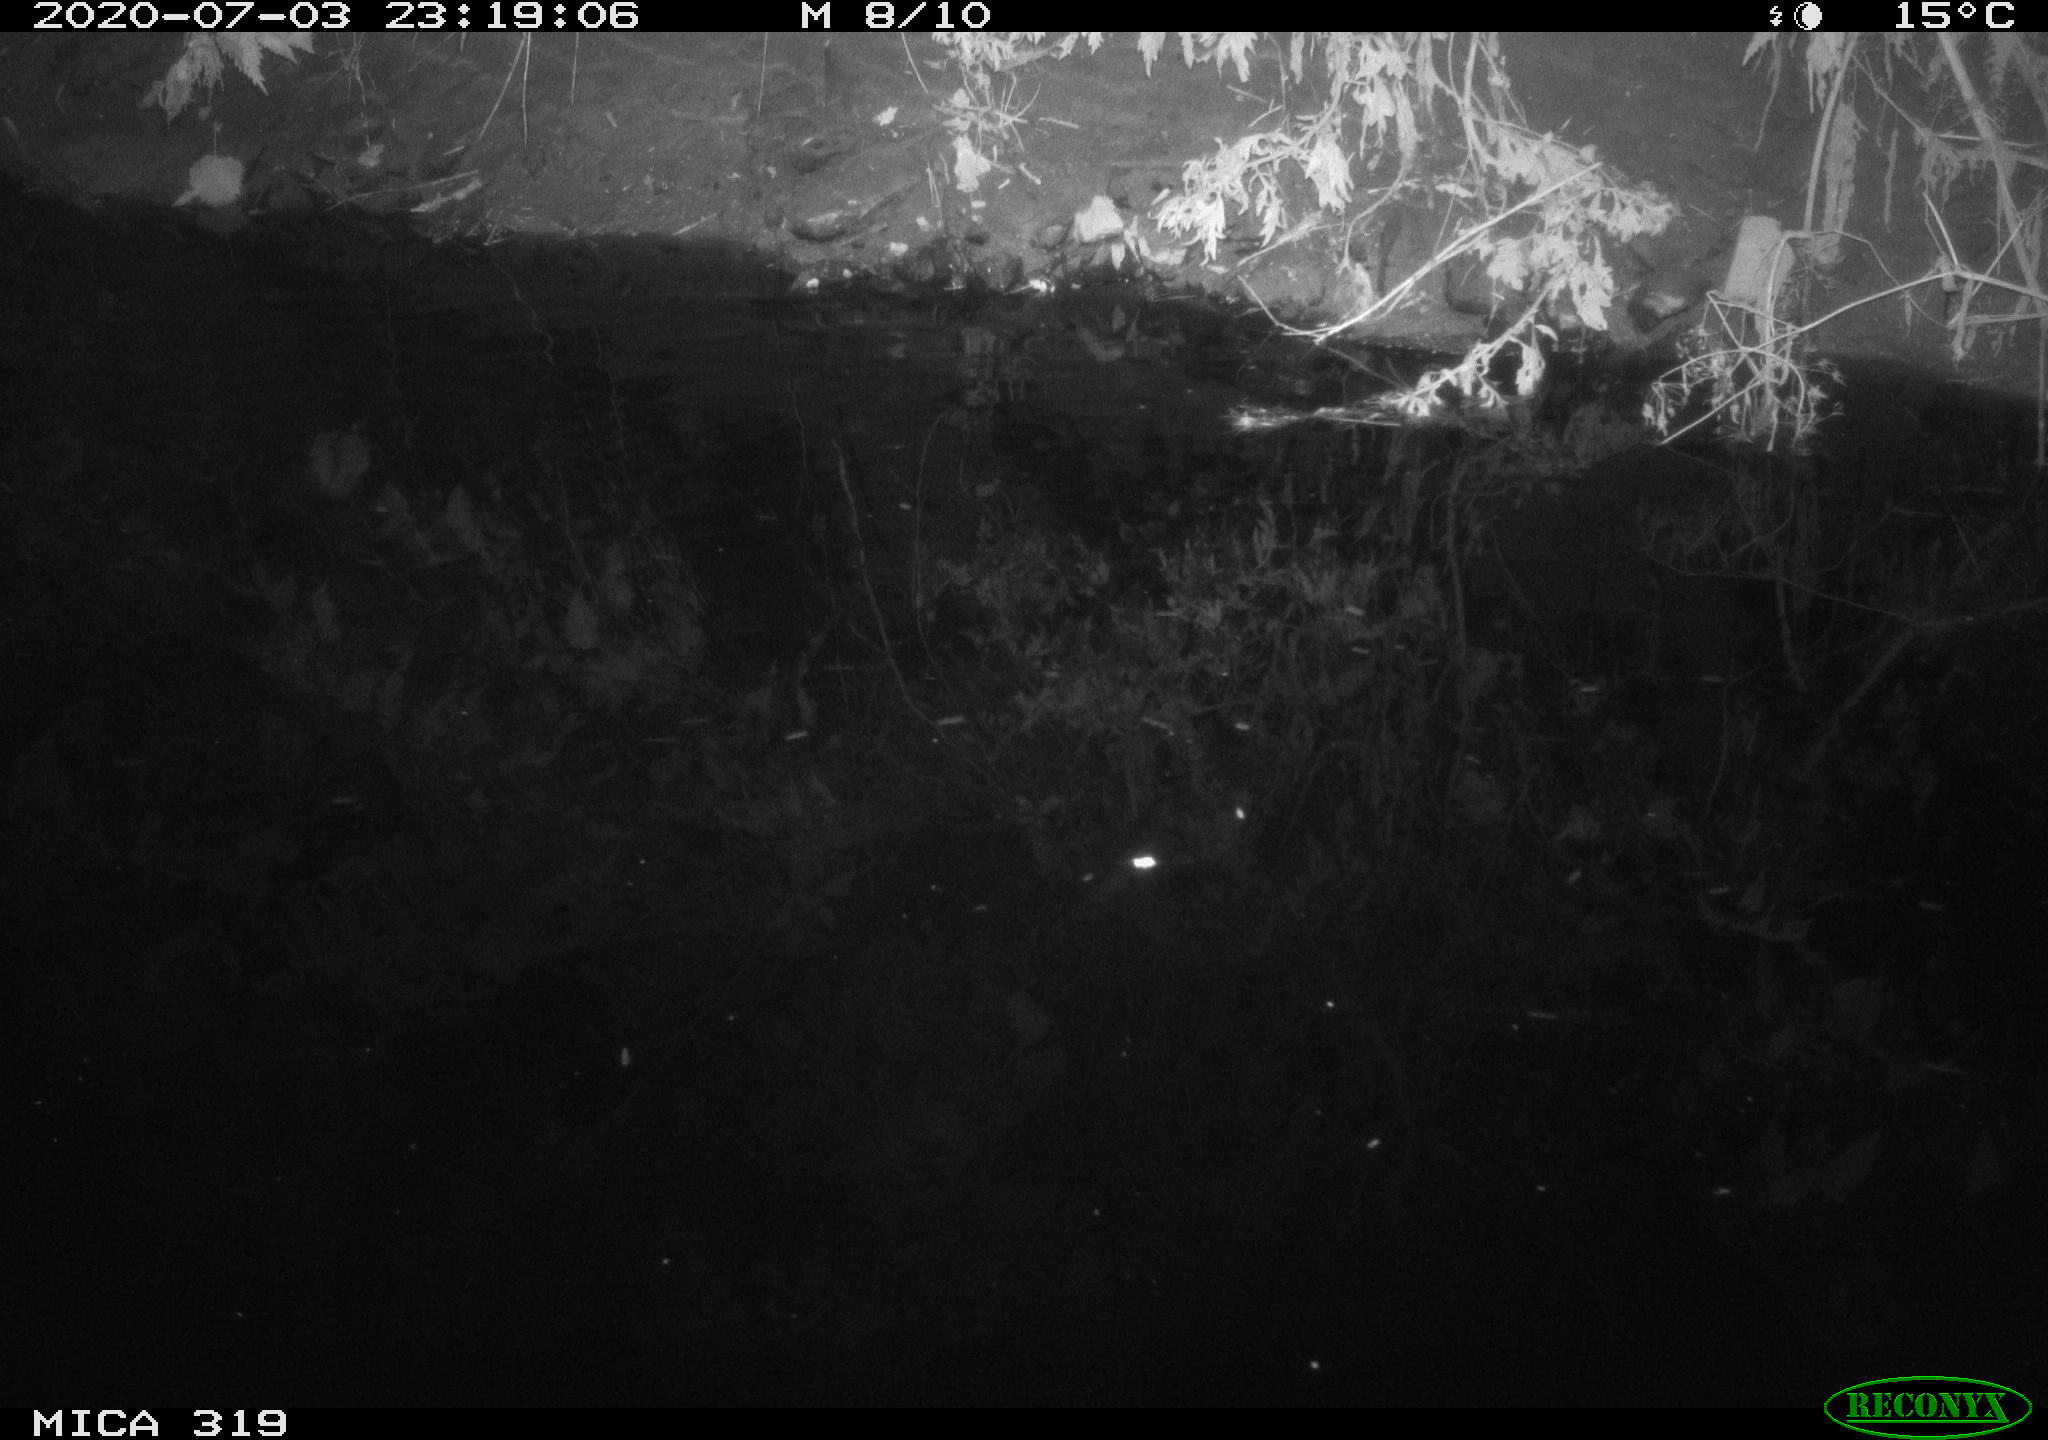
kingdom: Animalia
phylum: Chordata
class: Aves
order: Anseriformes
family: Anatidae
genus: Anas
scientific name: Anas platyrhynchos
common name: Mallard
